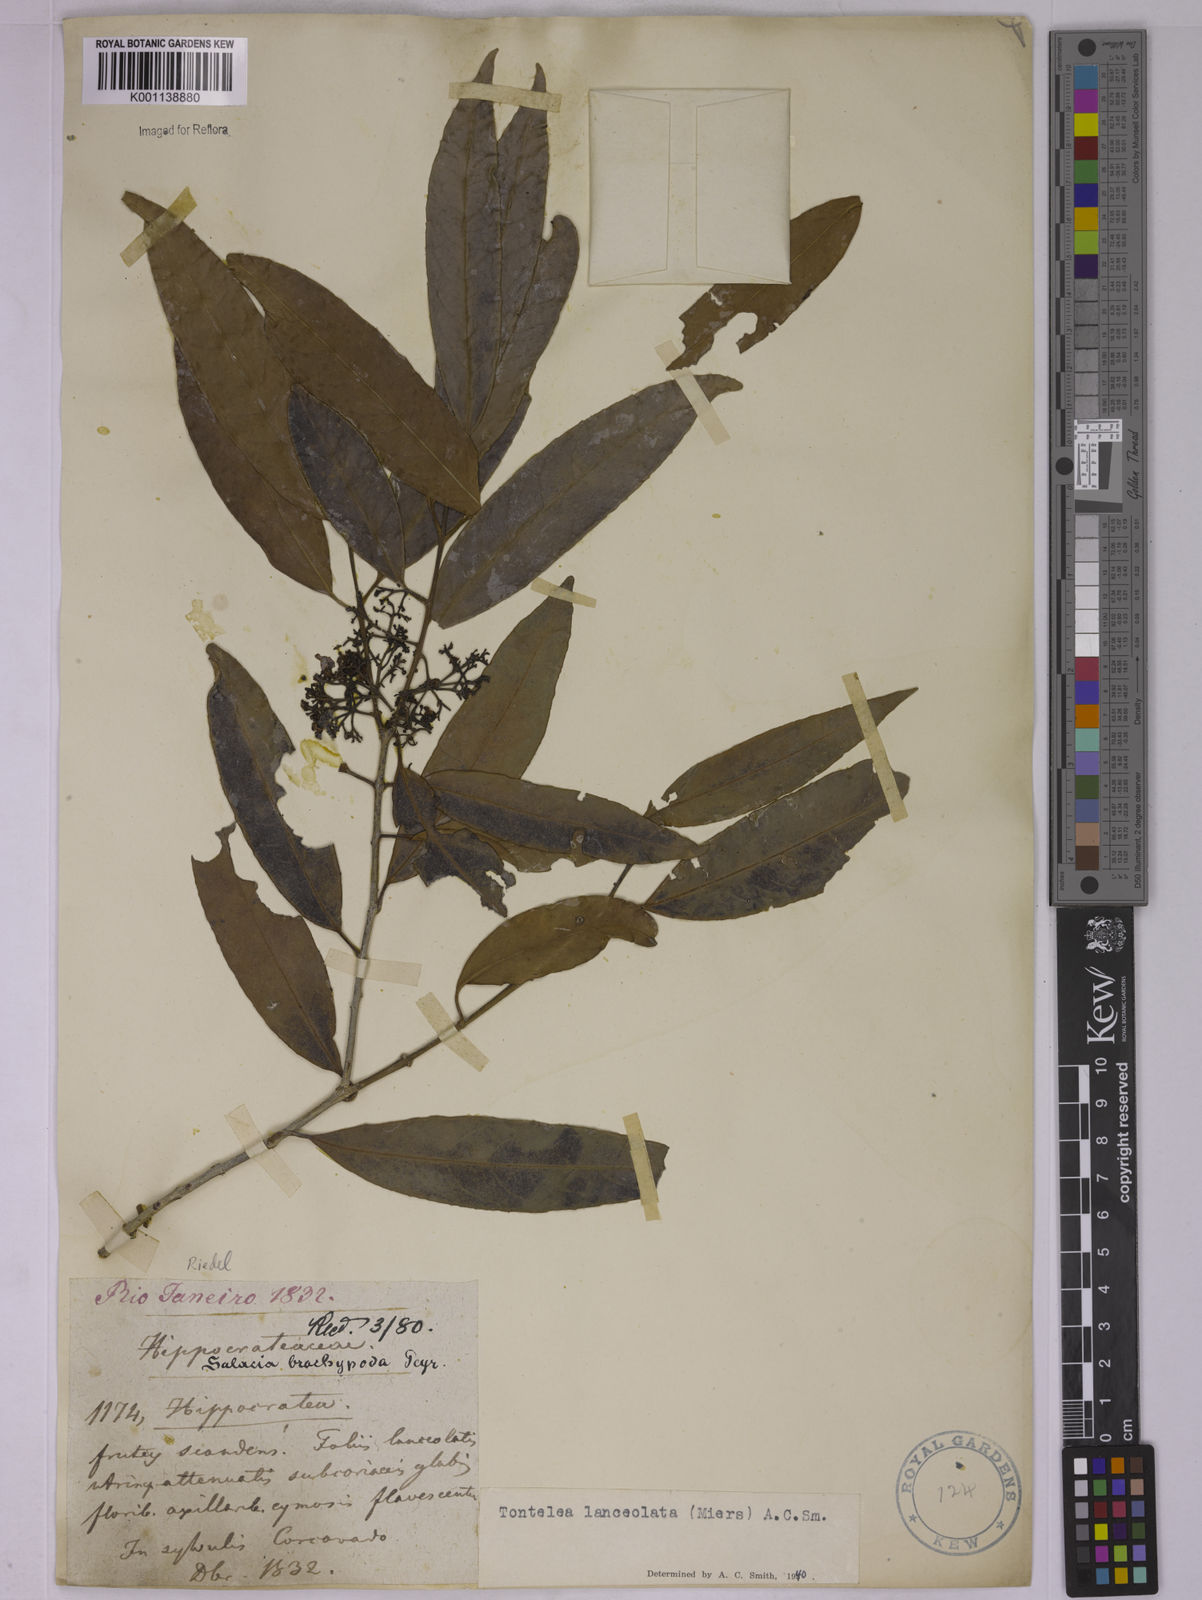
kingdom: Plantae
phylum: Tracheophyta
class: Magnoliopsida
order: Celastrales
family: Celastraceae
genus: Tontelea
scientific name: Tontelea lanceolata
